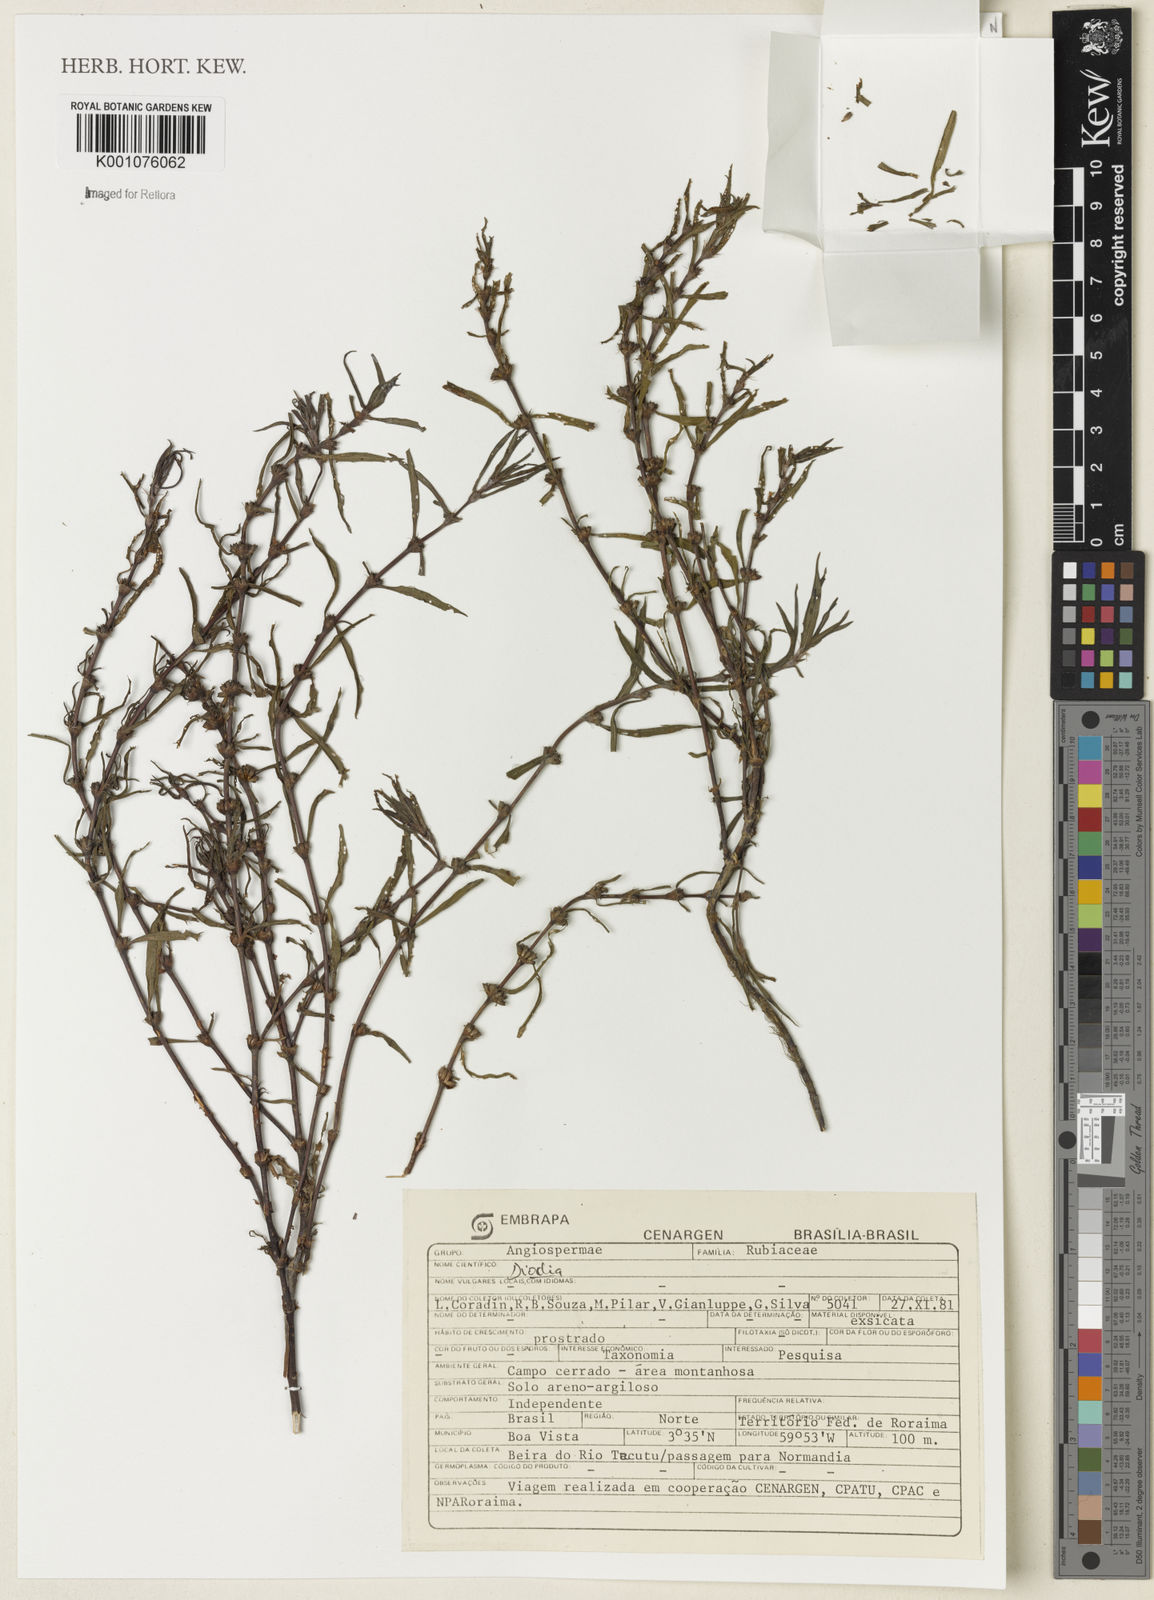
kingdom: Plantae
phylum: Tracheophyta
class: Magnoliopsida
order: Gentianales
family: Rubiaceae
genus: Diodia
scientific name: Diodia
